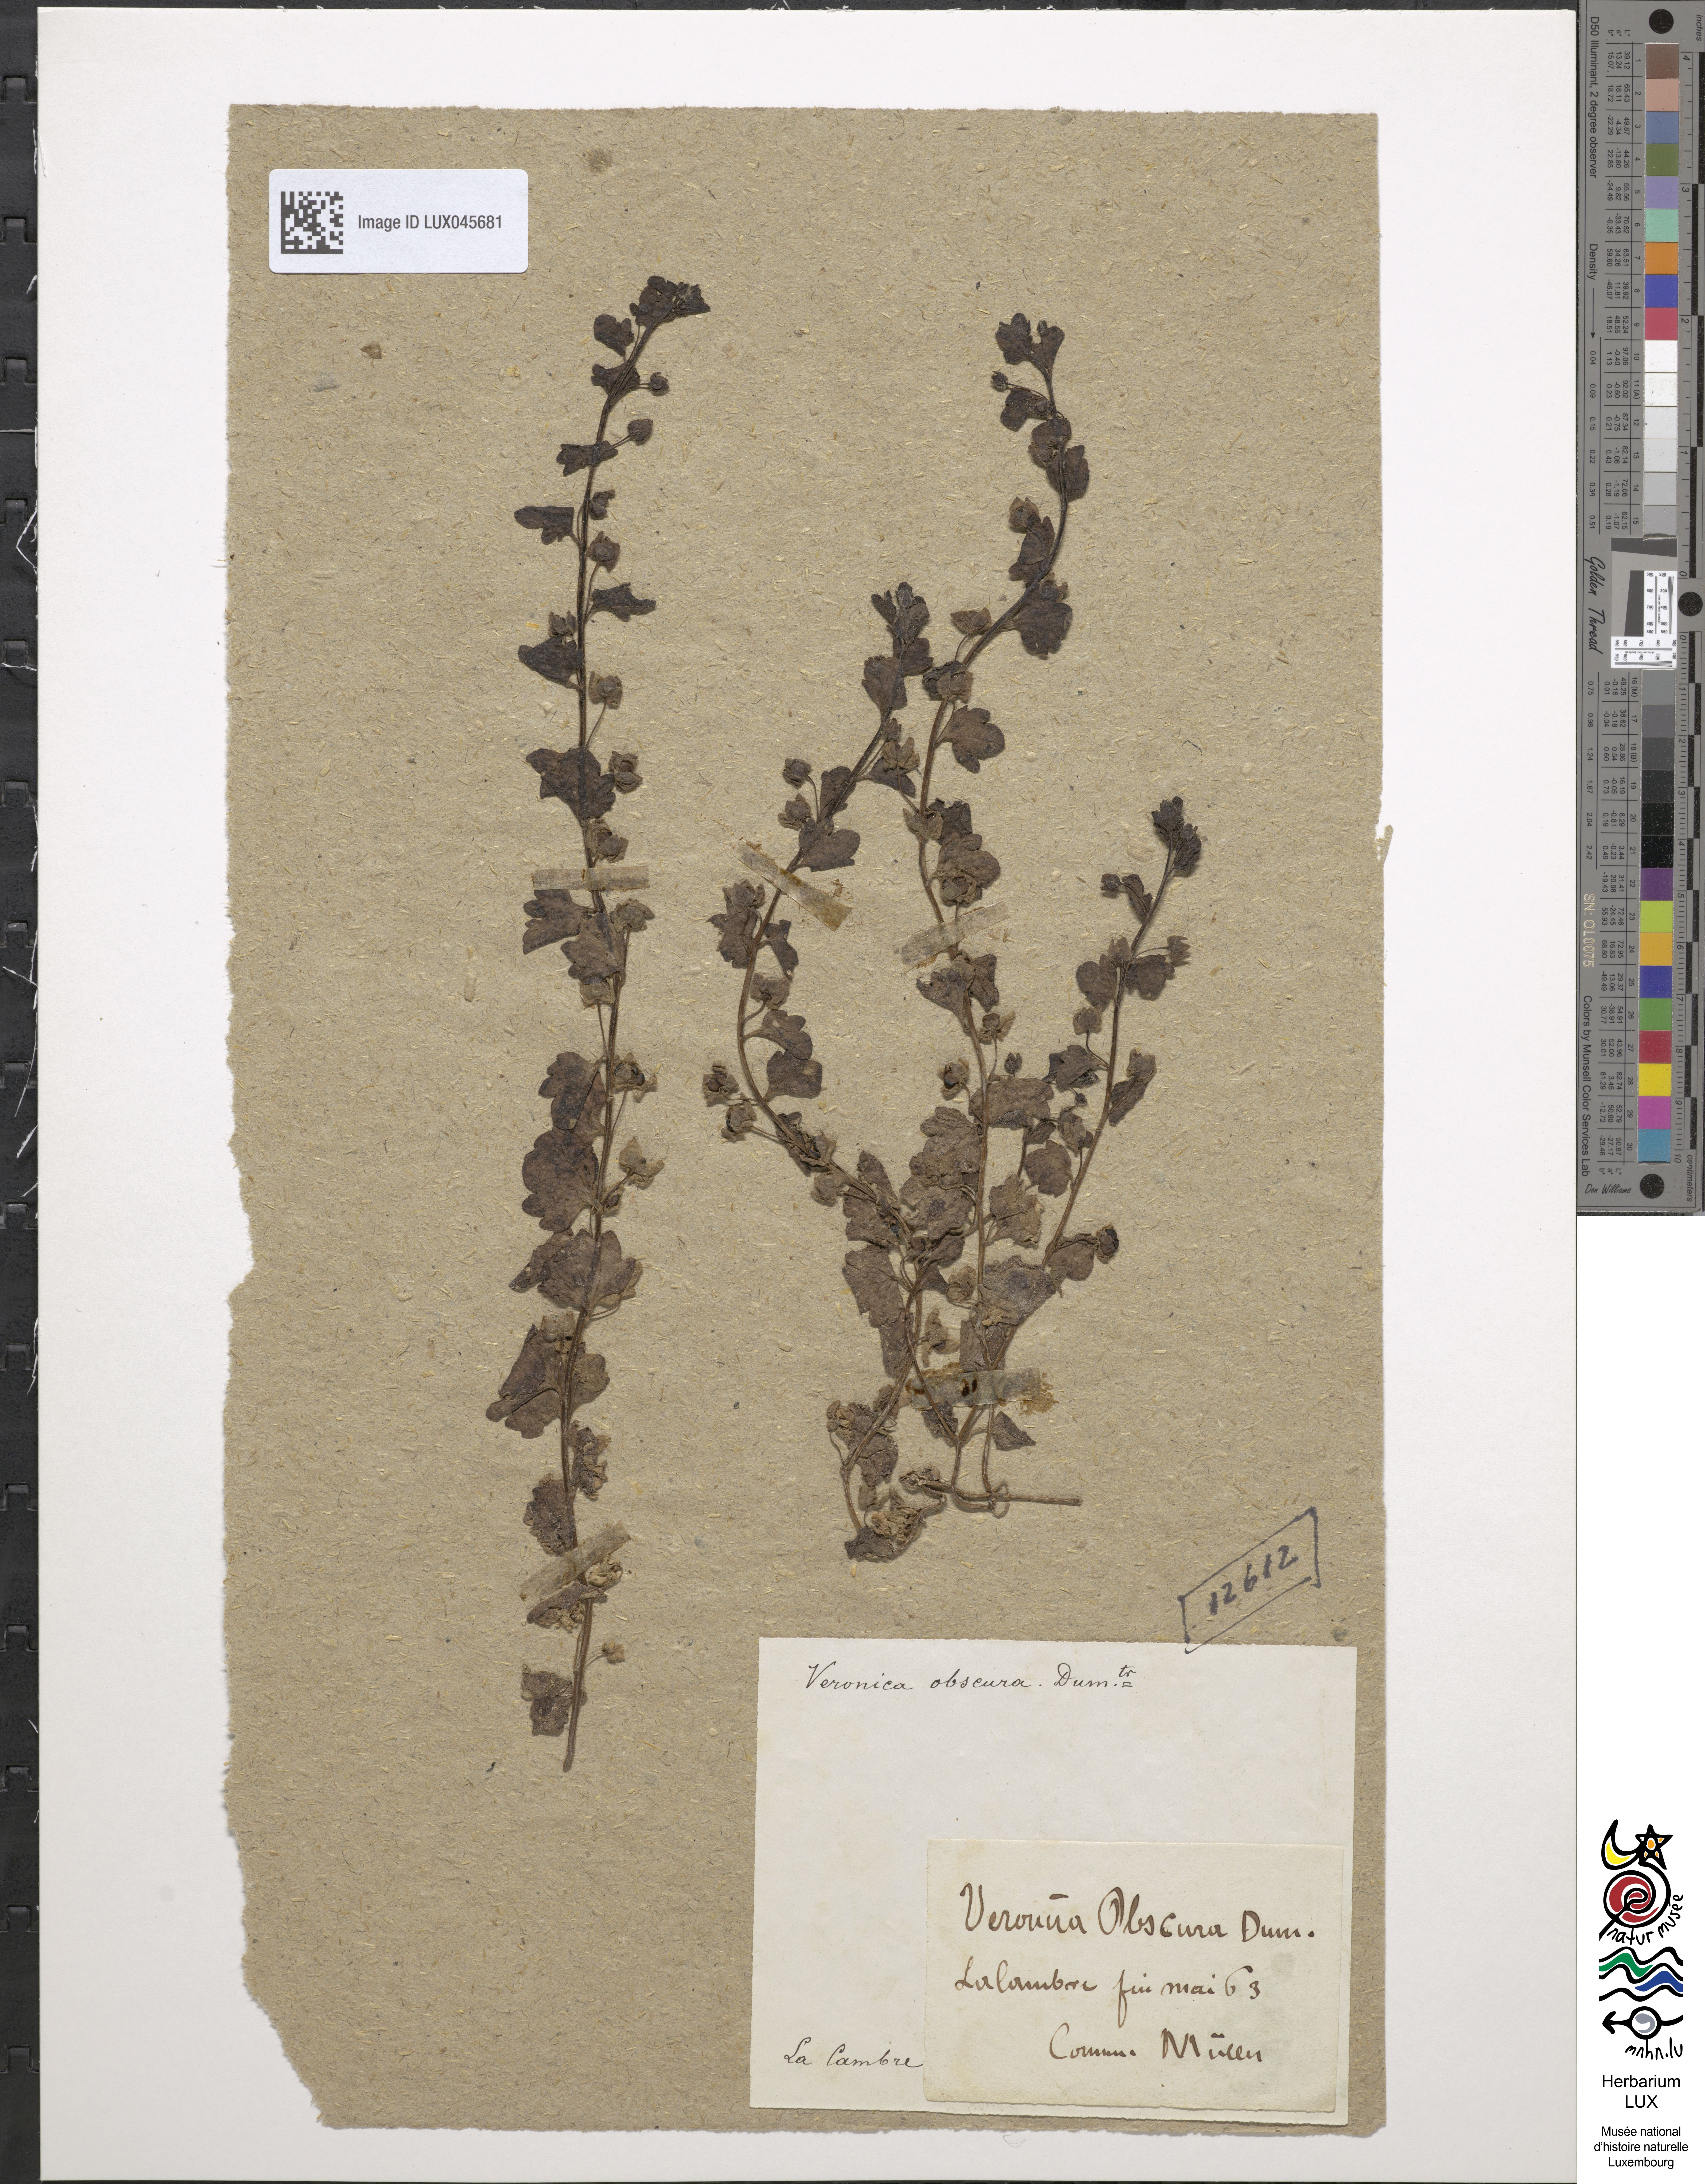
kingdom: Plantae
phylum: Tracheophyta
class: Magnoliopsida
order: Lamiales
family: Plantaginaceae
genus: Veronica
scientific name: Veronica agrestis
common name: Green field-speedwell
